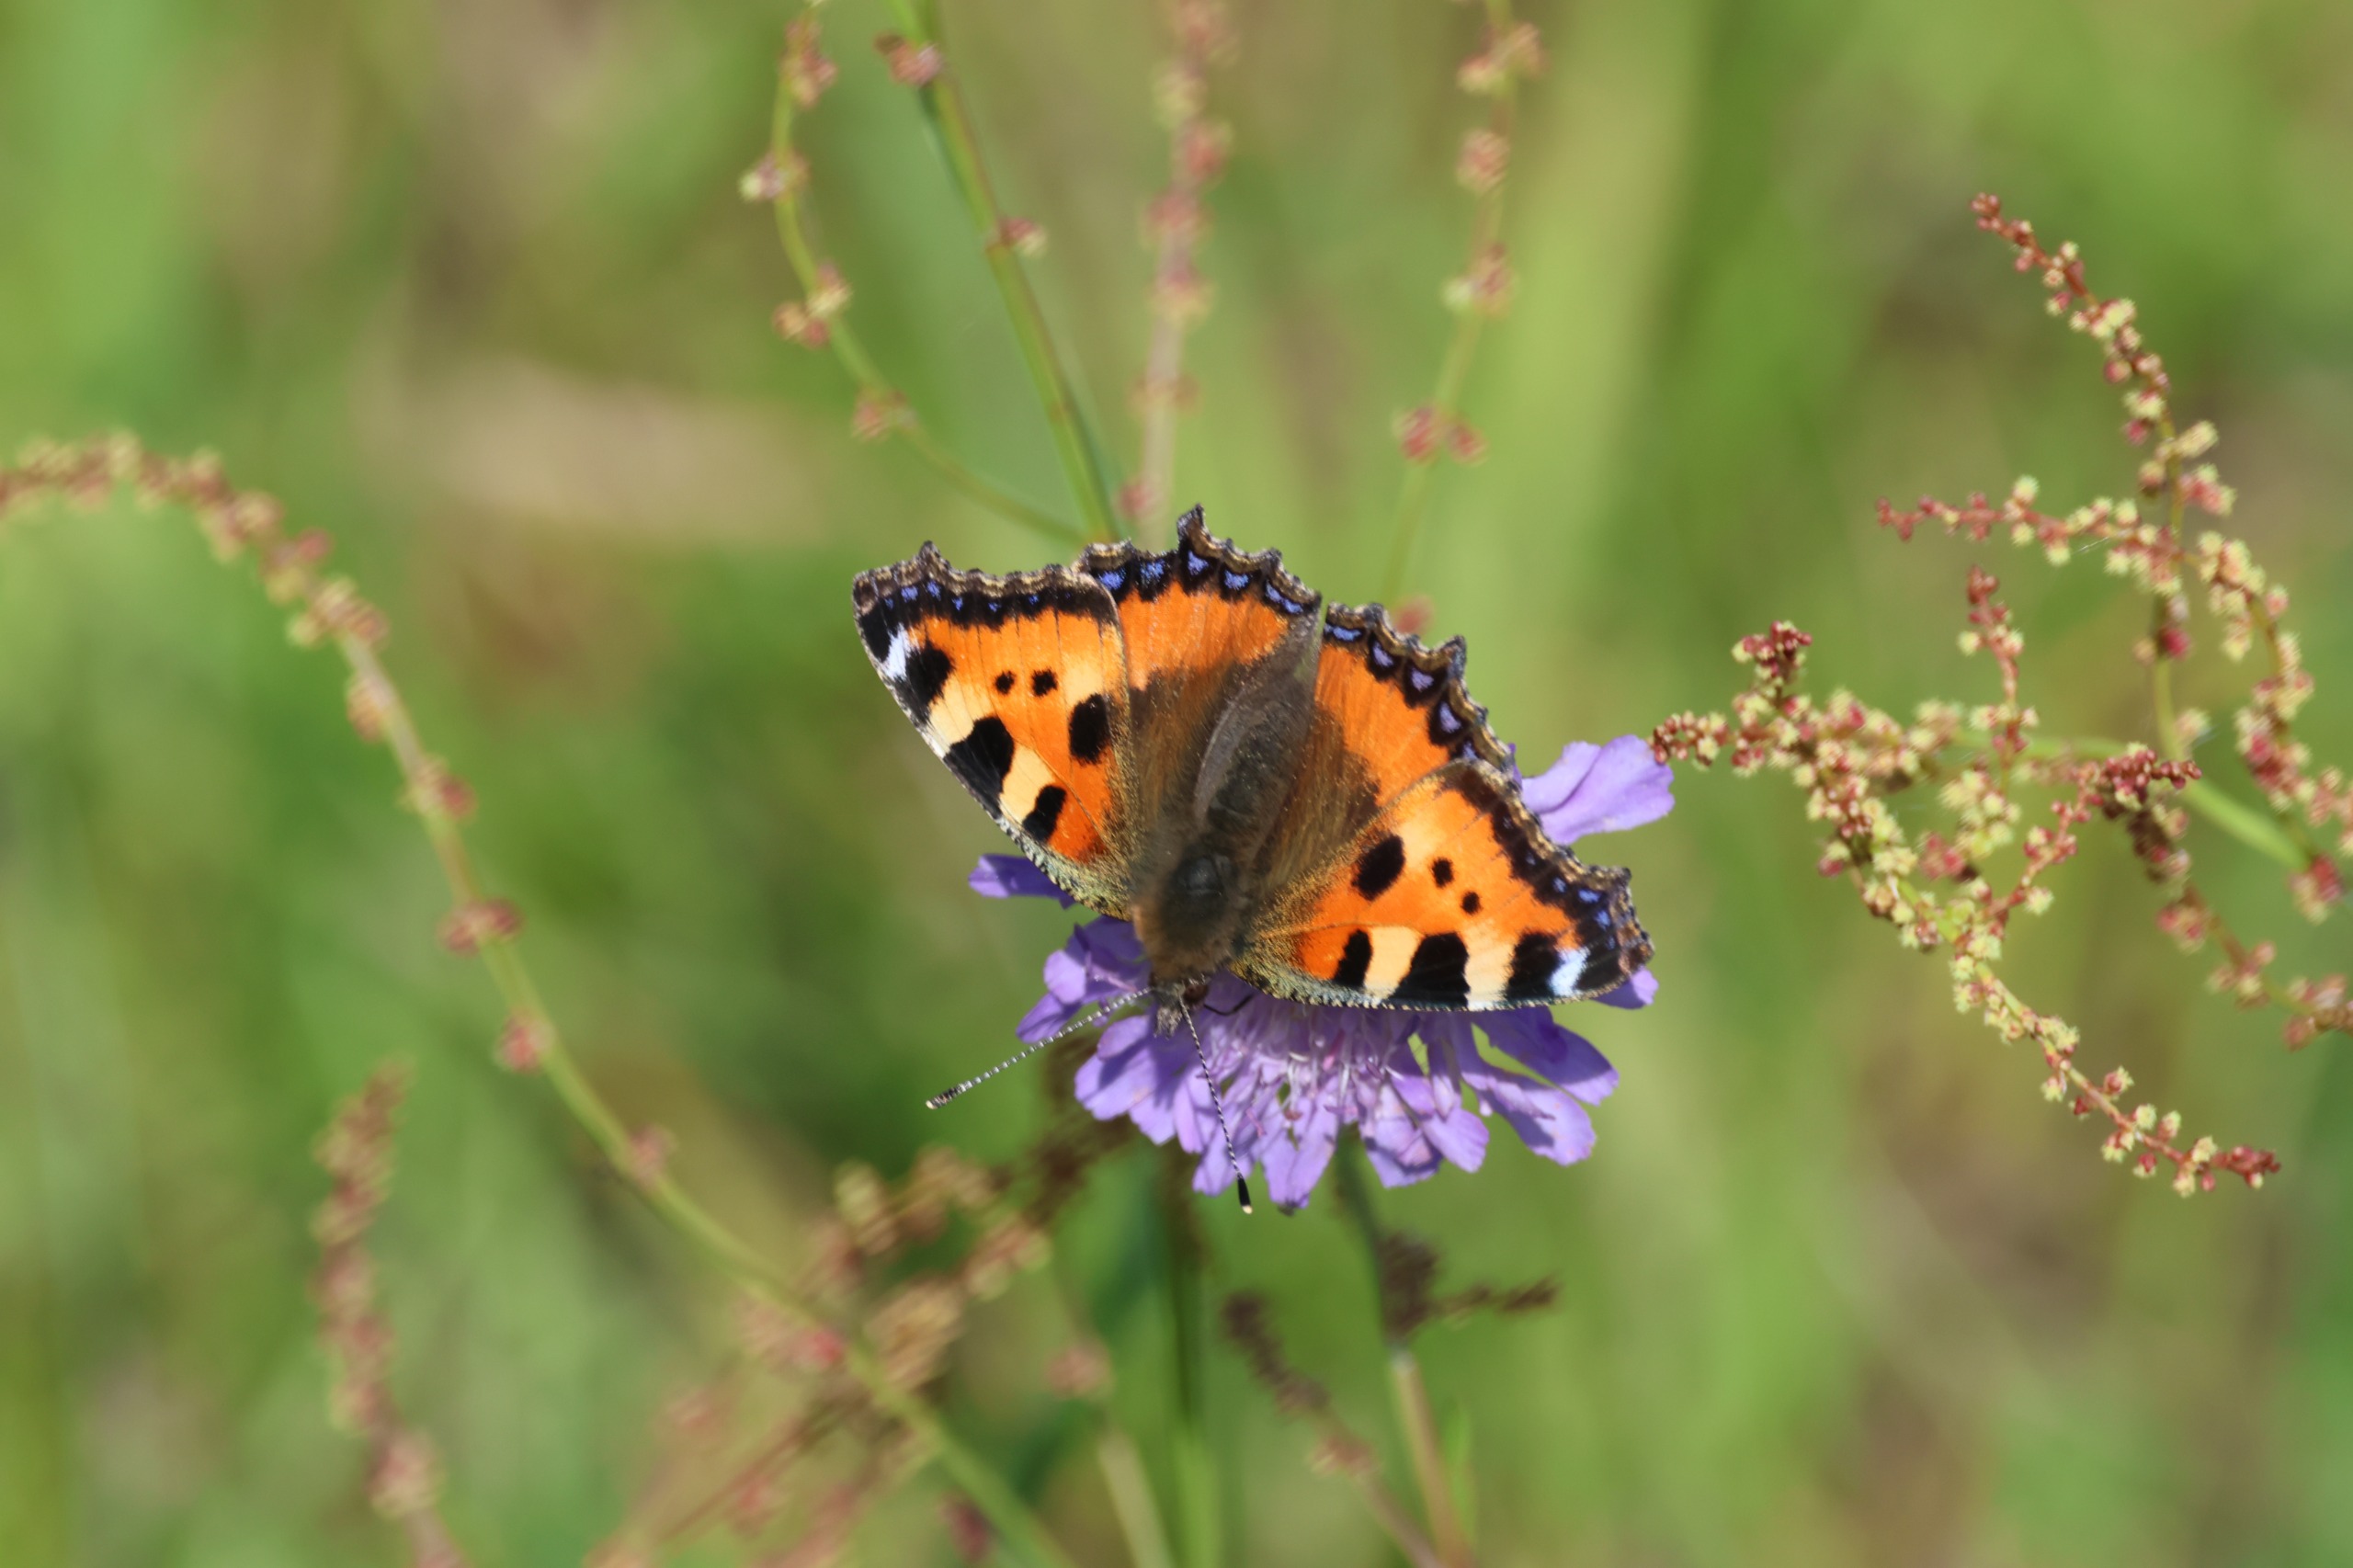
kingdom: Animalia
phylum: Arthropoda
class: Insecta
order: Lepidoptera
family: Nymphalidae
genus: Aglais
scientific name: Aglais urticae
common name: Nældens takvinge
